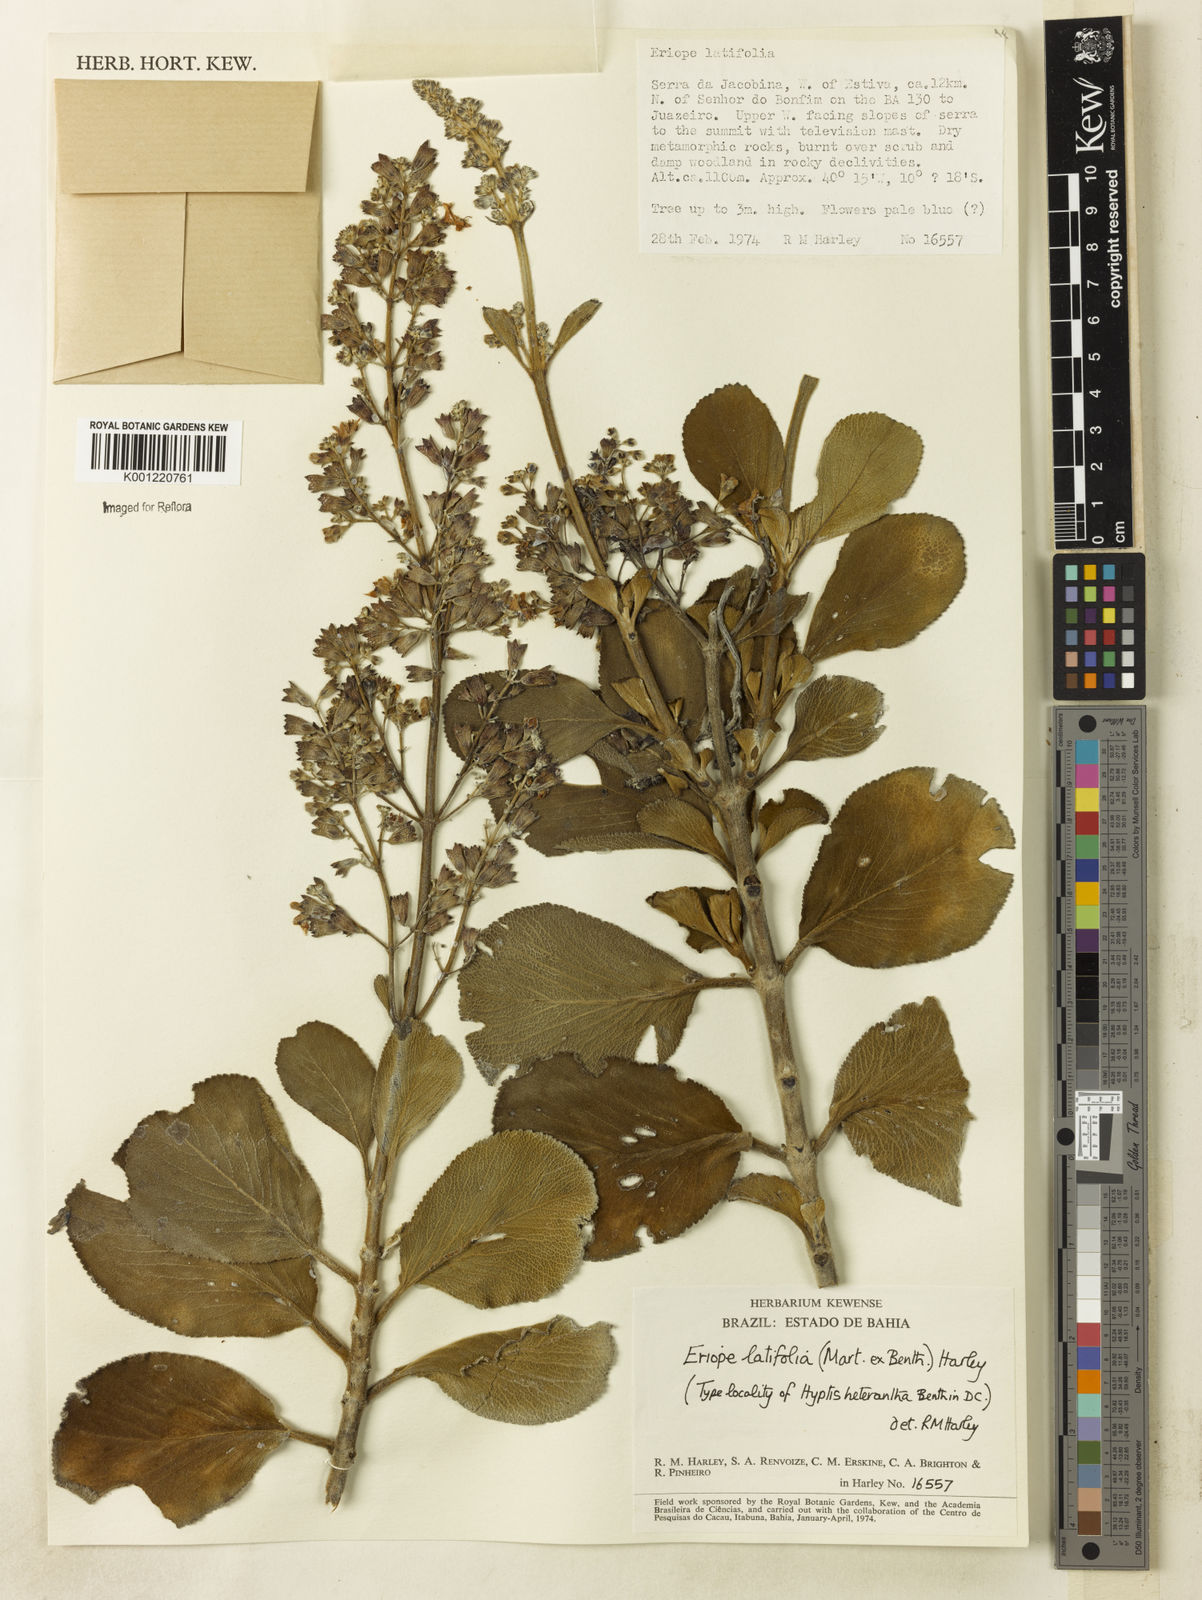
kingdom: Plantae
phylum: Tracheophyta
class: Magnoliopsida
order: Lamiales
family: Lamiaceae
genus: Eriope
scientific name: Eriope latifolia
